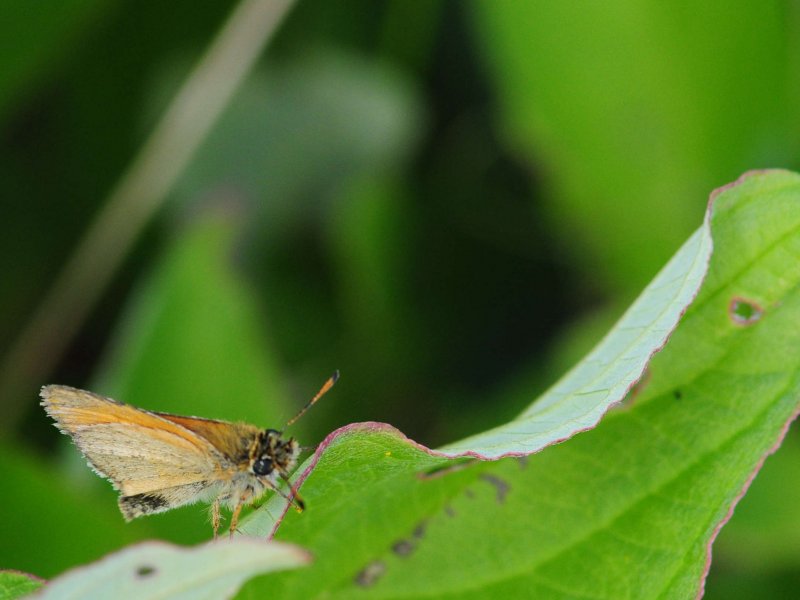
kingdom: Animalia
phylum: Arthropoda
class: Insecta
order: Lepidoptera
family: Hesperiidae
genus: Thymelicus
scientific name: Thymelicus lineola
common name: European Skipper
